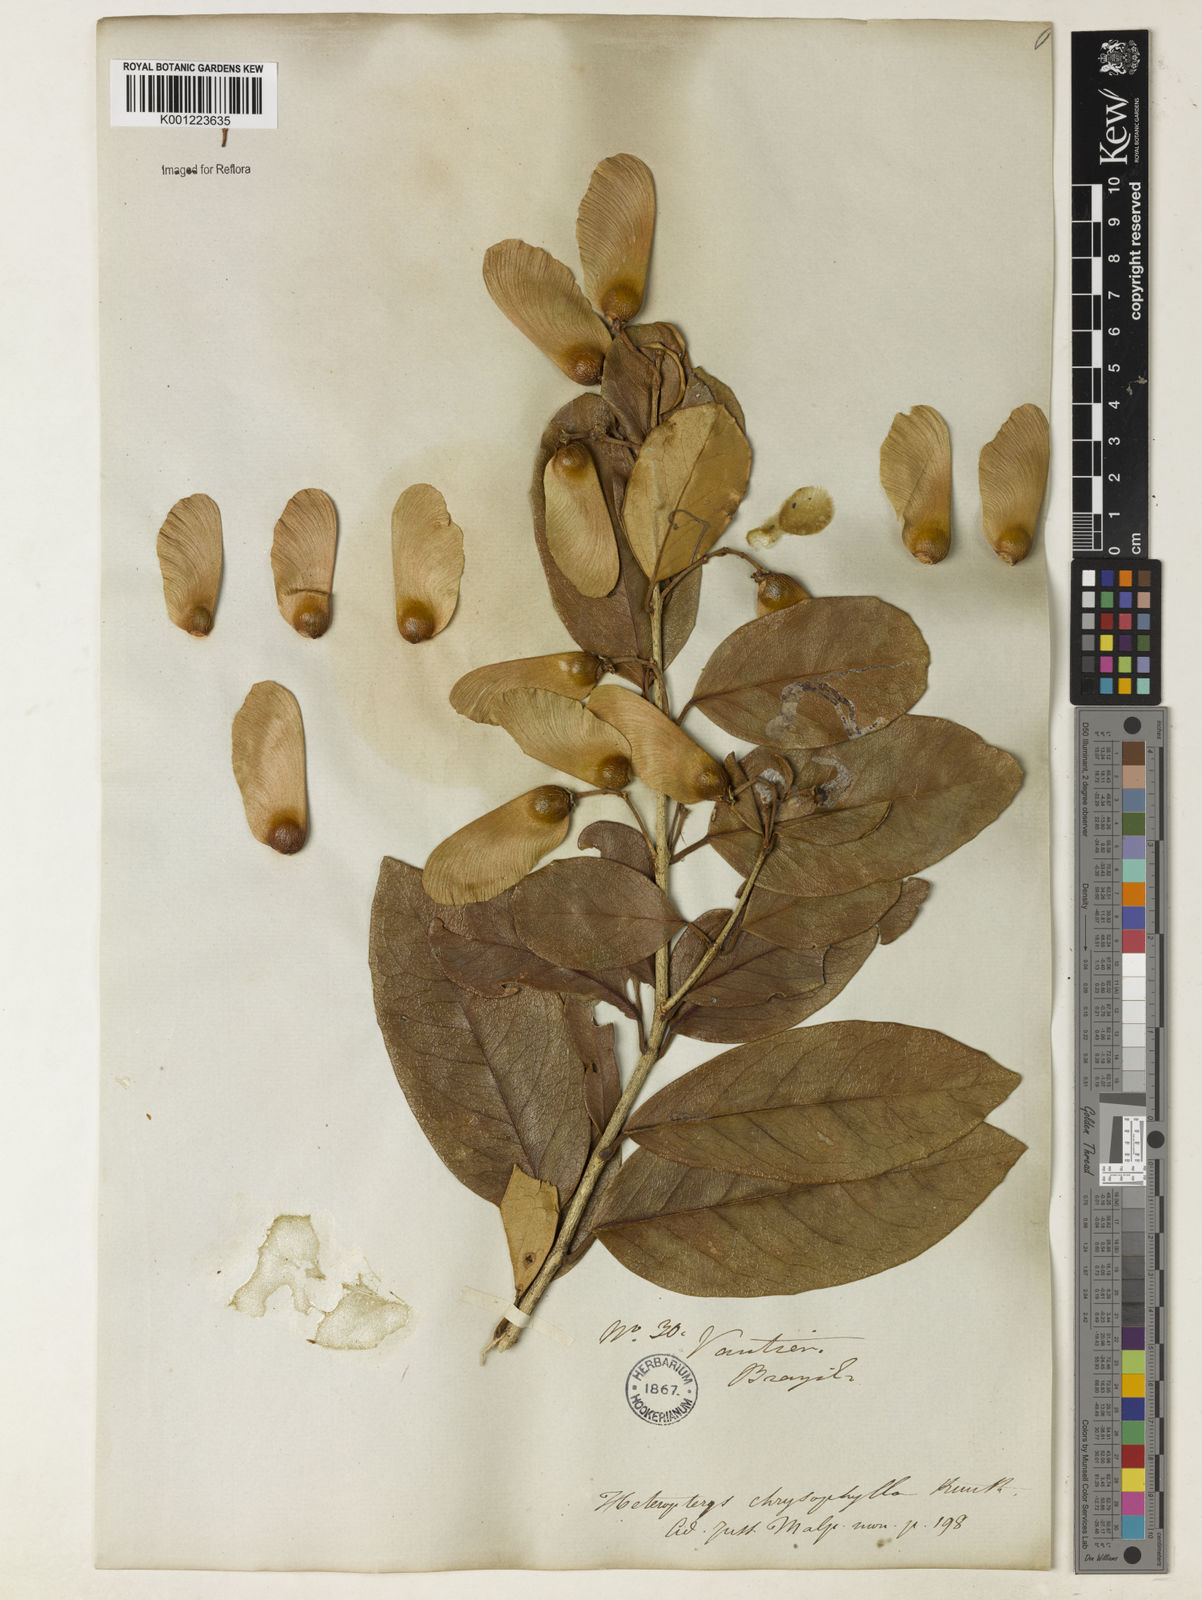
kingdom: Plantae
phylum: Tracheophyta
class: Magnoliopsida
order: Malpighiales
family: Malpighiaceae
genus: Heteropterys
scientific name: Heteropterys chrysophylla
